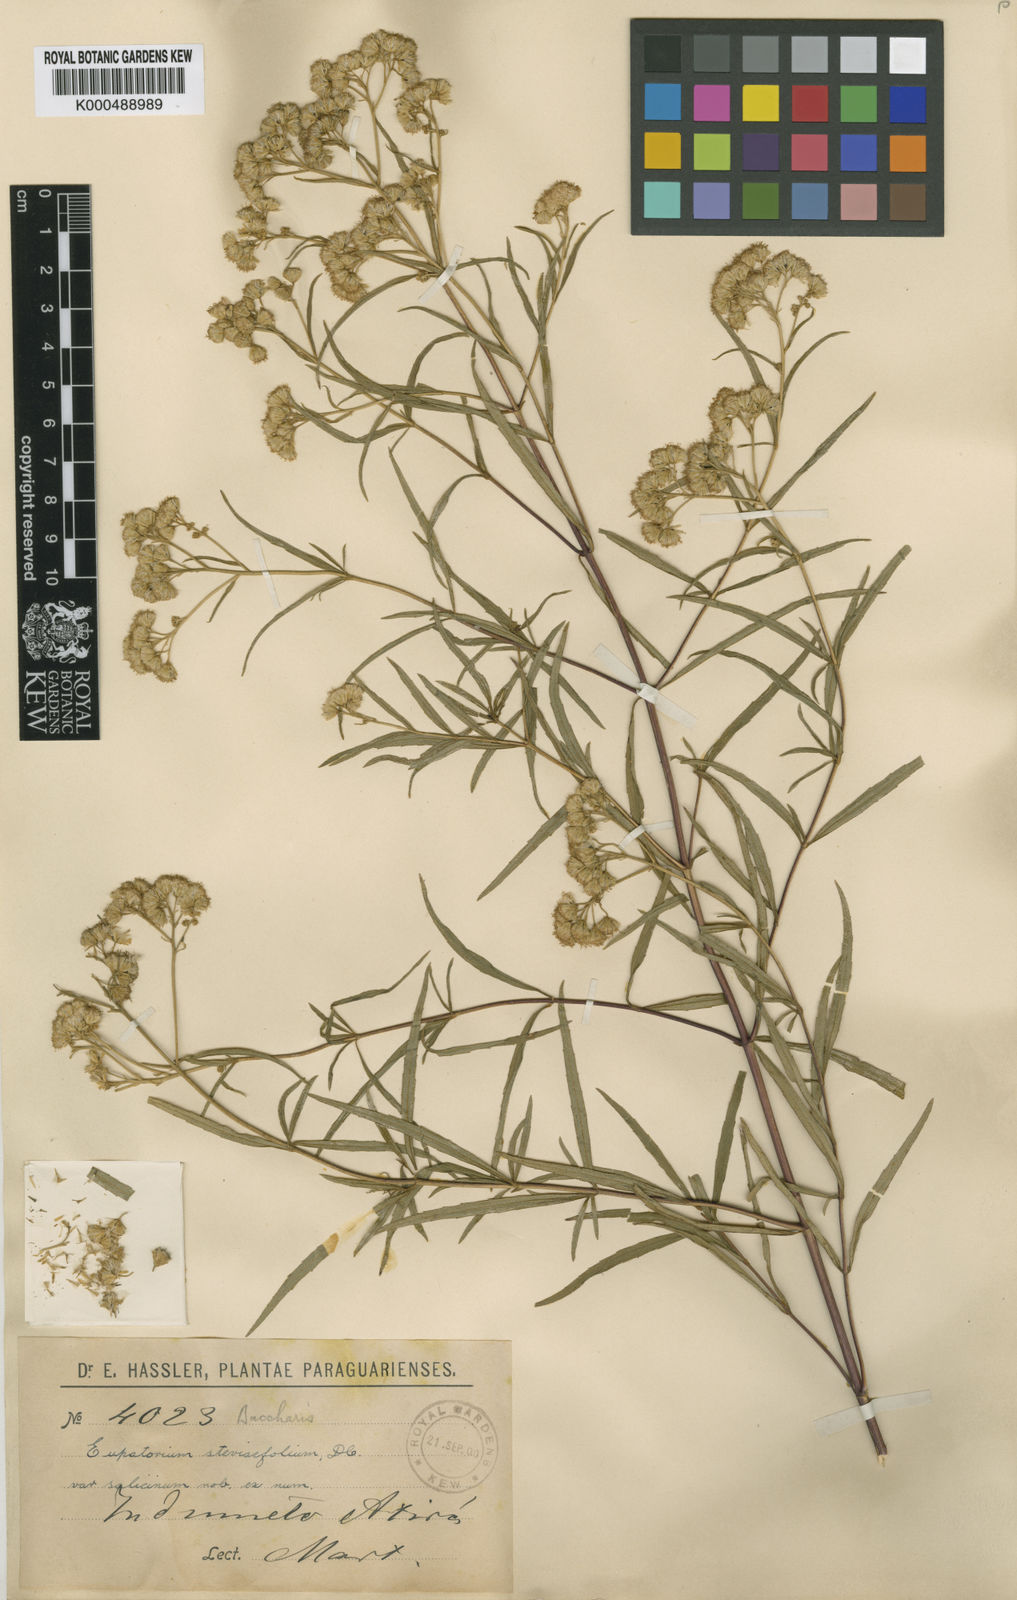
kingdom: Plantae
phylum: Tracheophyta
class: Magnoliopsida
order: Asterales
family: Asteraceae
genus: Austroeupatorium
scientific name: Austroeupatorium laetevirens
